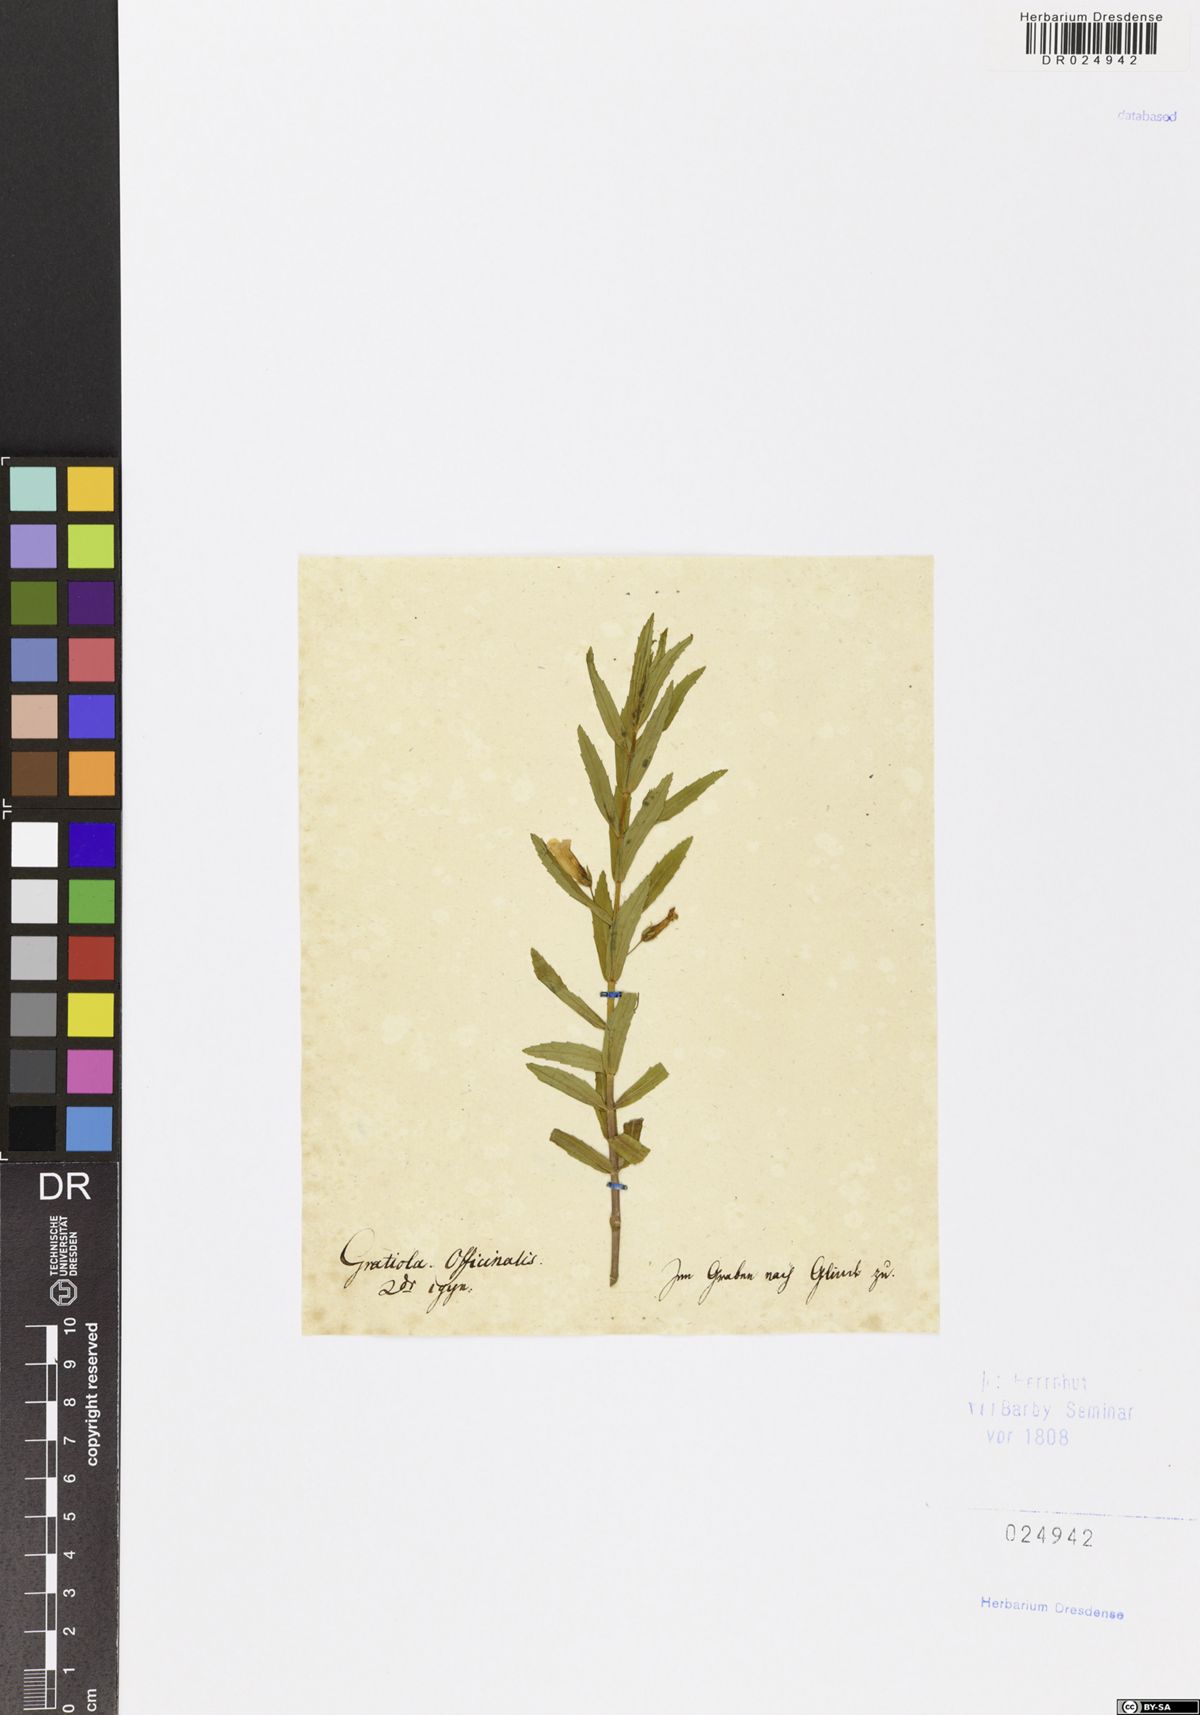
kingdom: Plantae
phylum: Tracheophyta
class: Magnoliopsida
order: Lamiales
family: Plantaginaceae
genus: Gratiola
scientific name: Gratiola officinalis
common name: Gratiola
